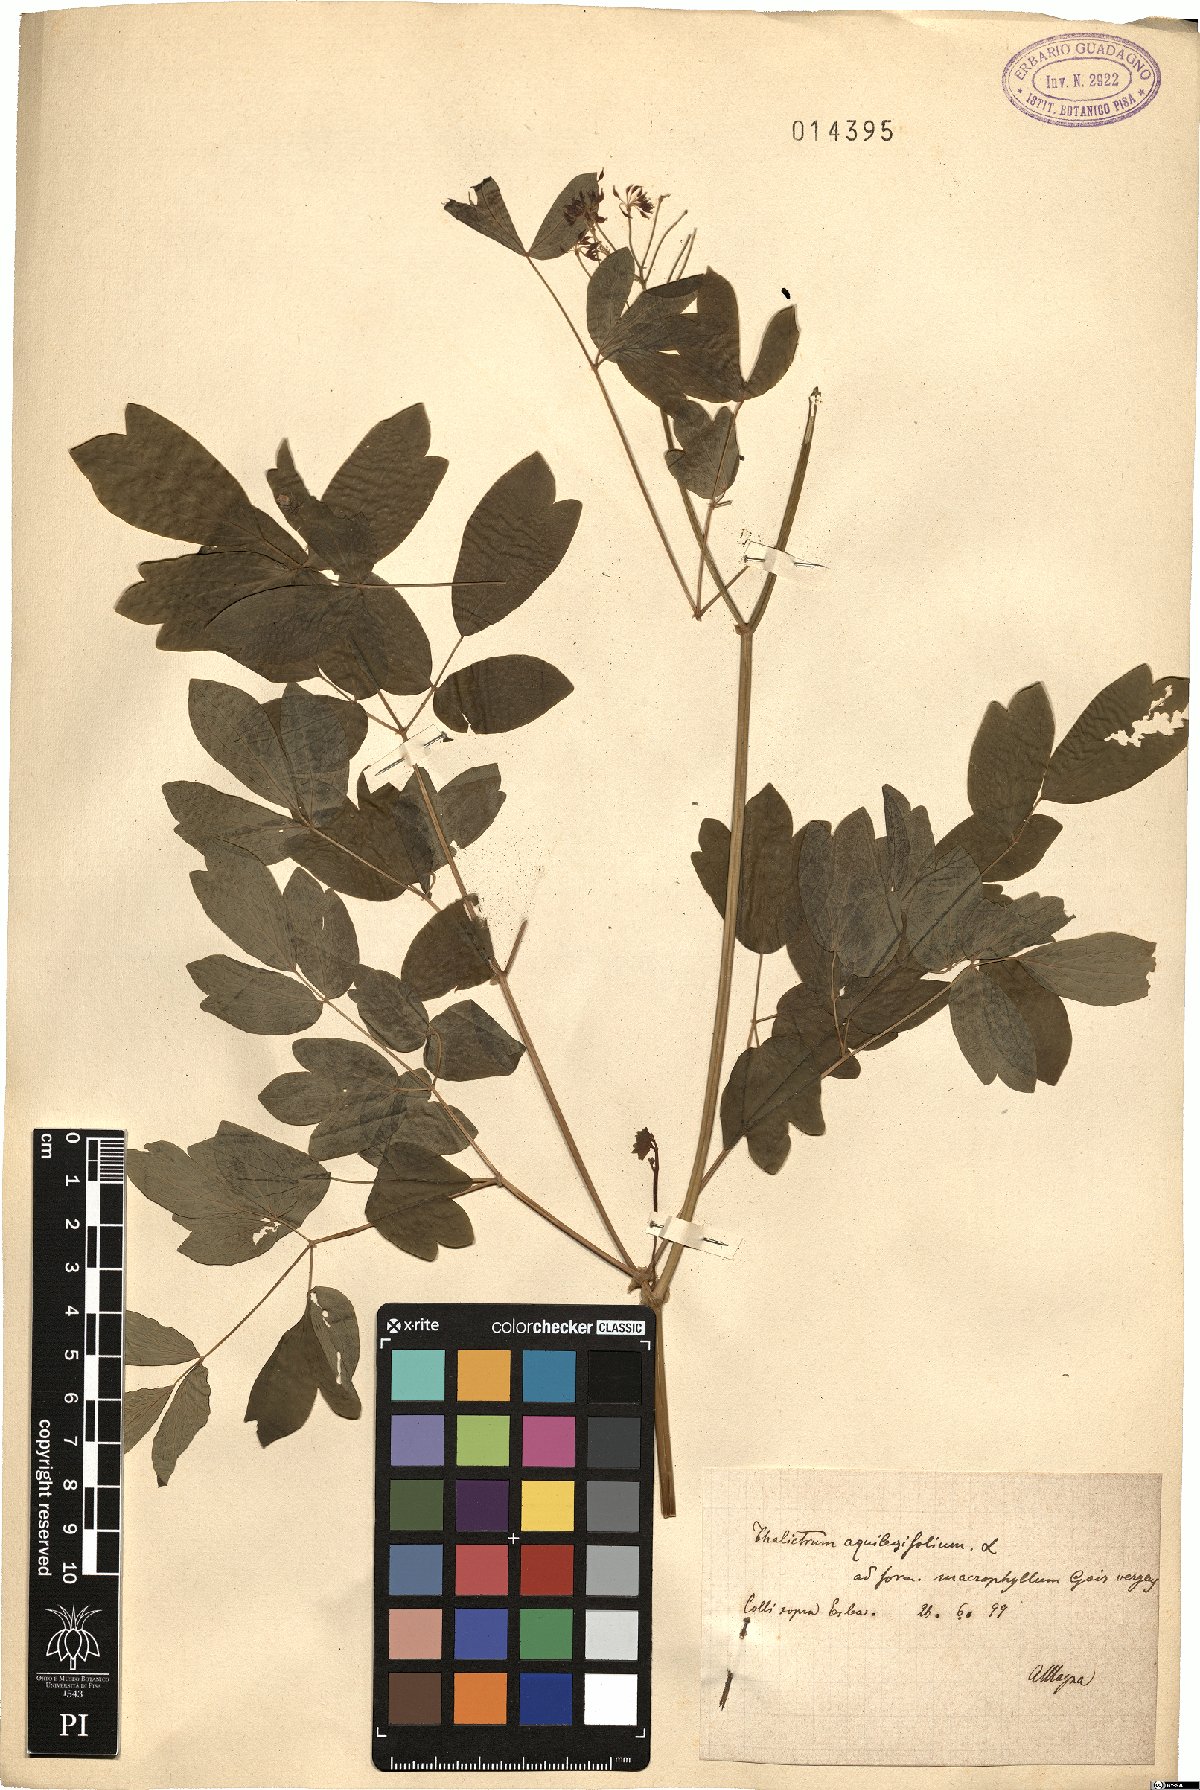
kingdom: Plantae
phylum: Tracheophyta
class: Magnoliopsida
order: Ranunculales
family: Ranunculaceae
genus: Thalictrum
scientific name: Thalictrum aquilegiifolium
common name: French meadow-rue
